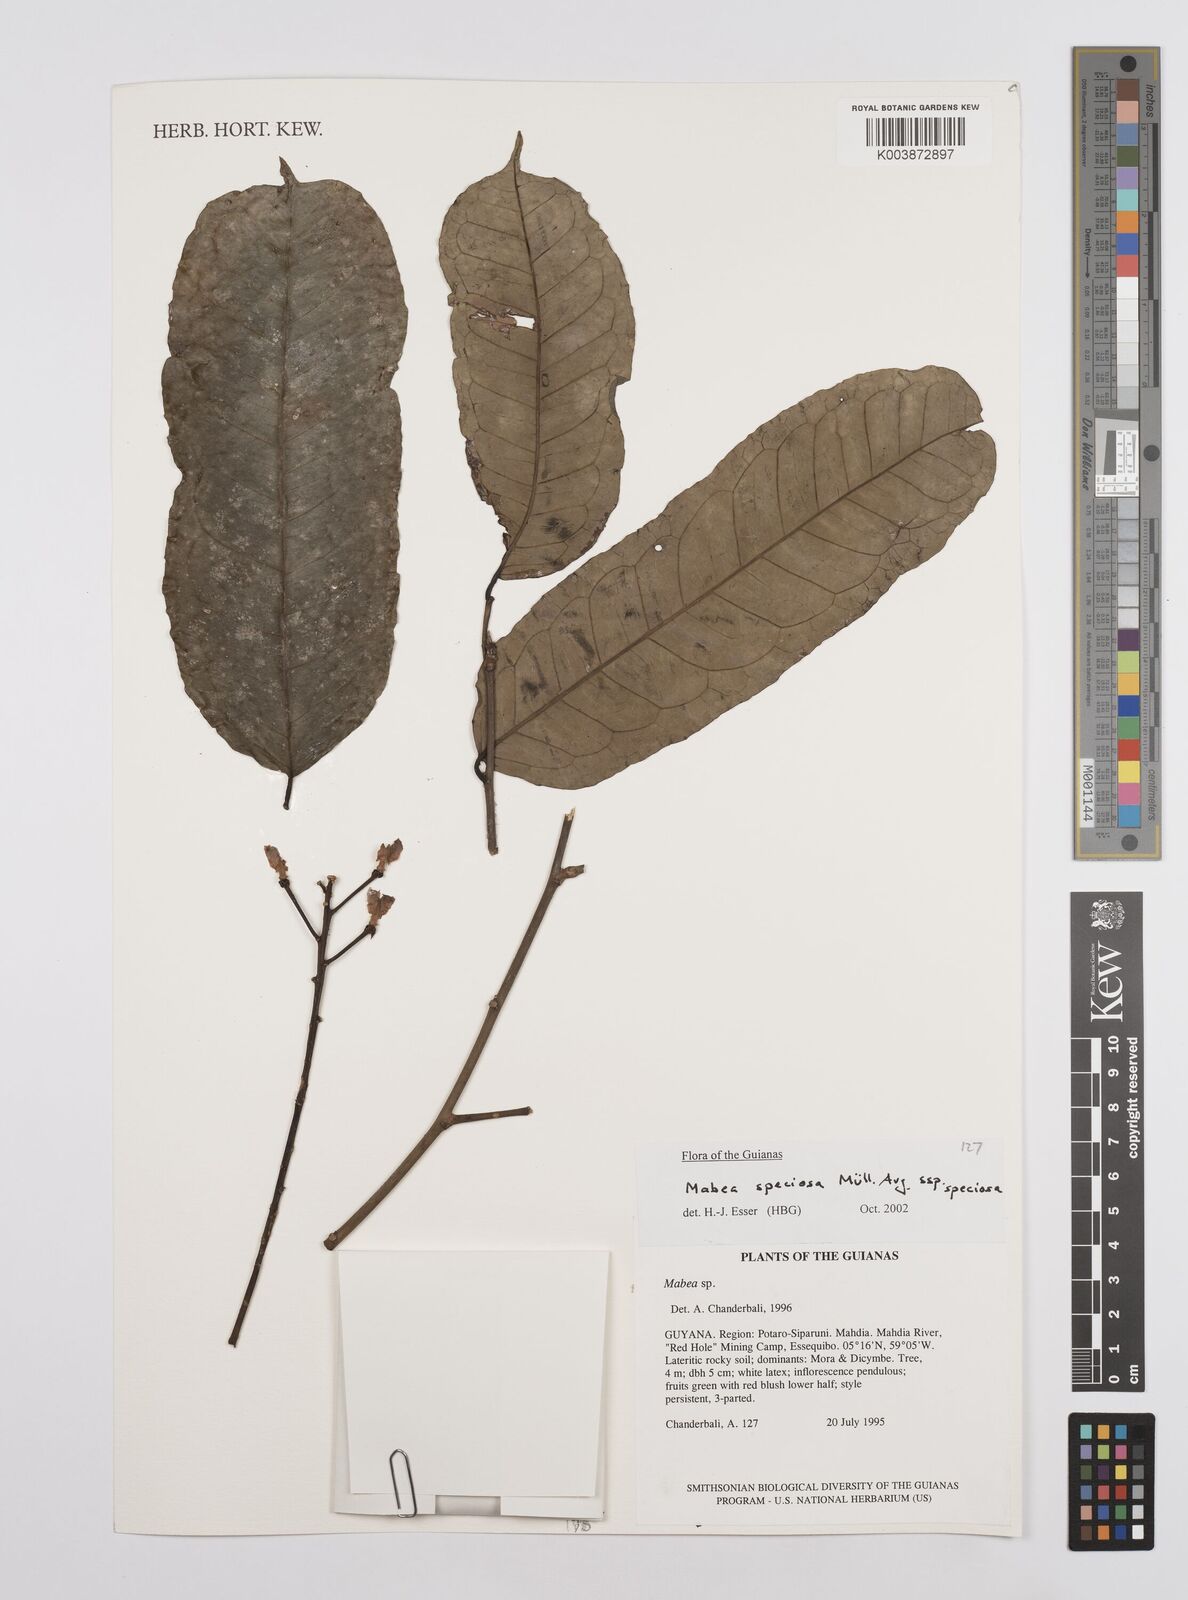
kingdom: Plantae
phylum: Tracheophyta
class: Magnoliopsida
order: Malpighiales
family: Euphorbiaceae
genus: Mabea
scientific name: Mabea speciosa
